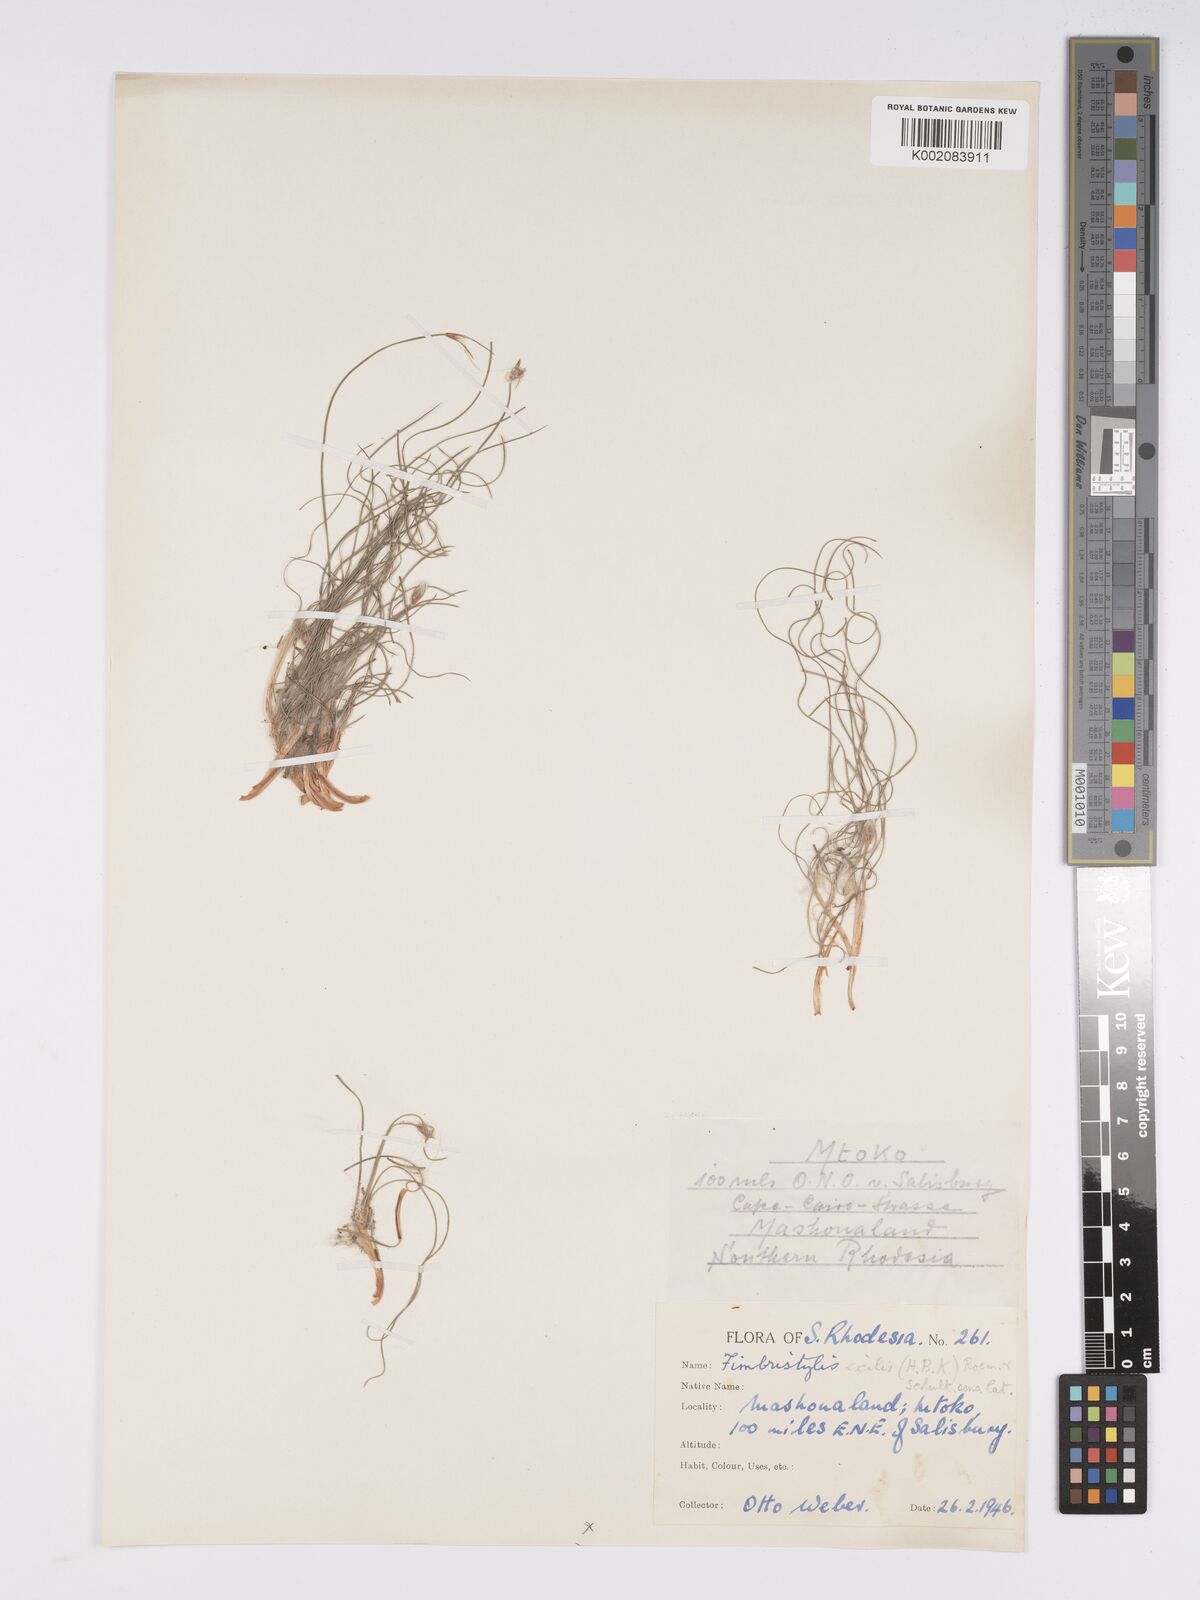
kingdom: Plantae
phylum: Tracheophyta
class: Liliopsida
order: Poales
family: Cyperaceae
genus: Bulbostylis
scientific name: Bulbostylis hispidula
